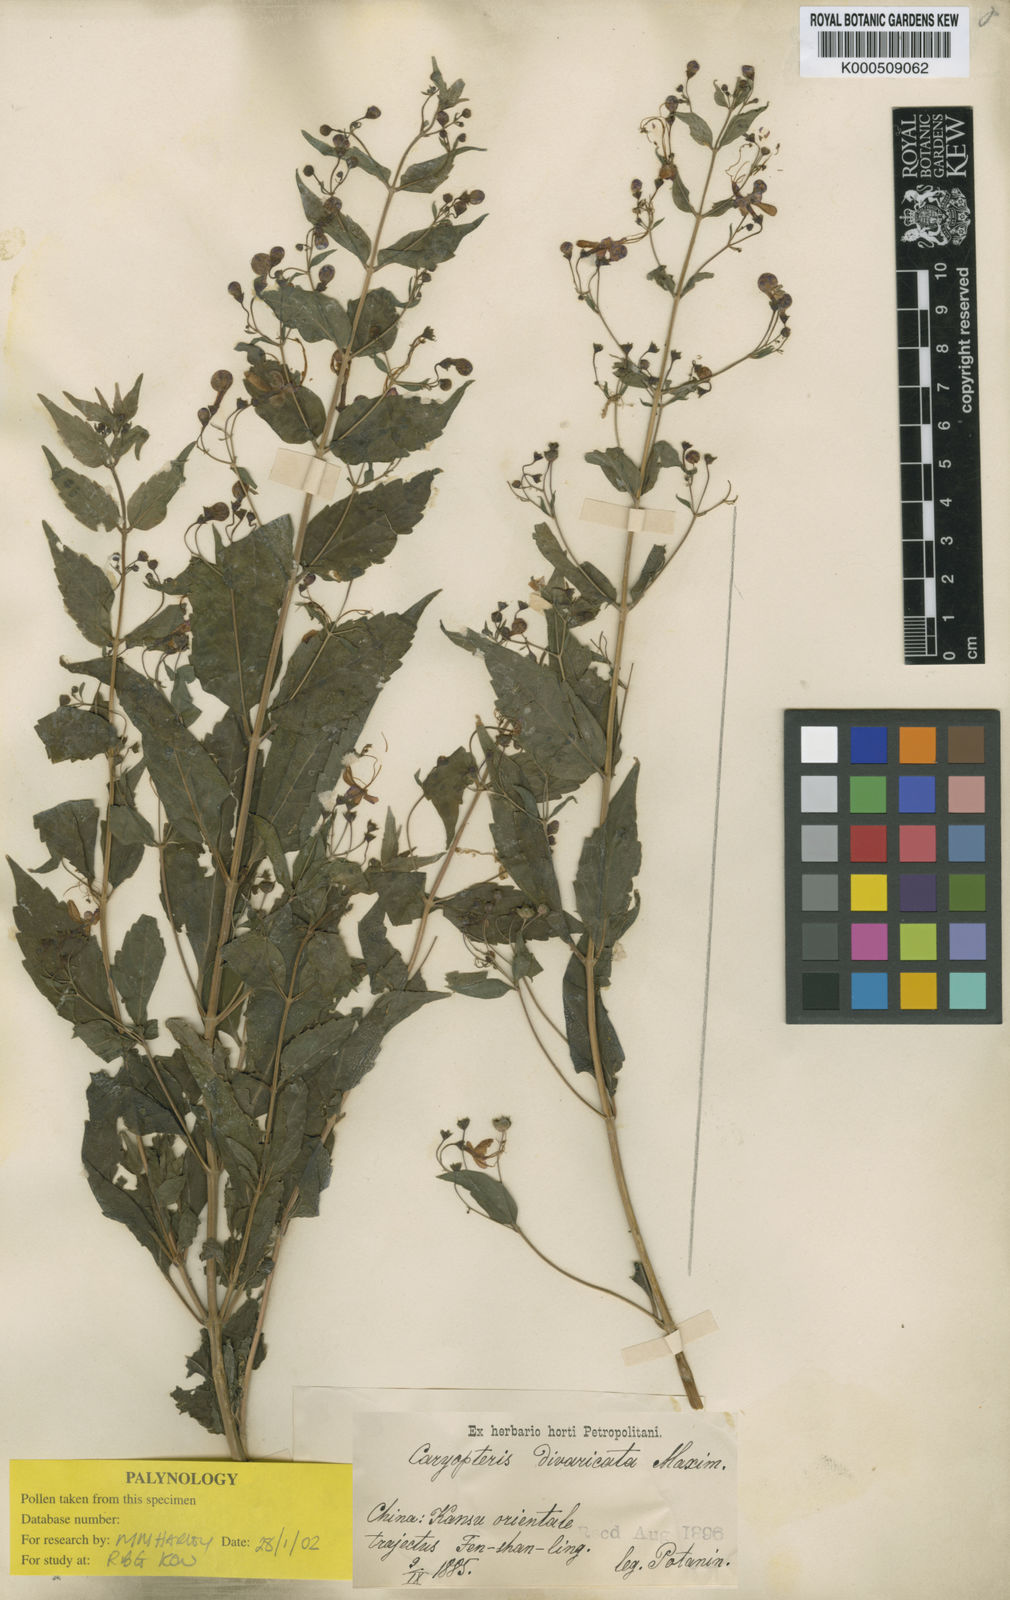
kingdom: Plantae
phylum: Tracheophyta
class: Magnoliopsida
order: Lamiales
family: Lamiaceae
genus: Tripora
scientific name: Tripora divaricata
